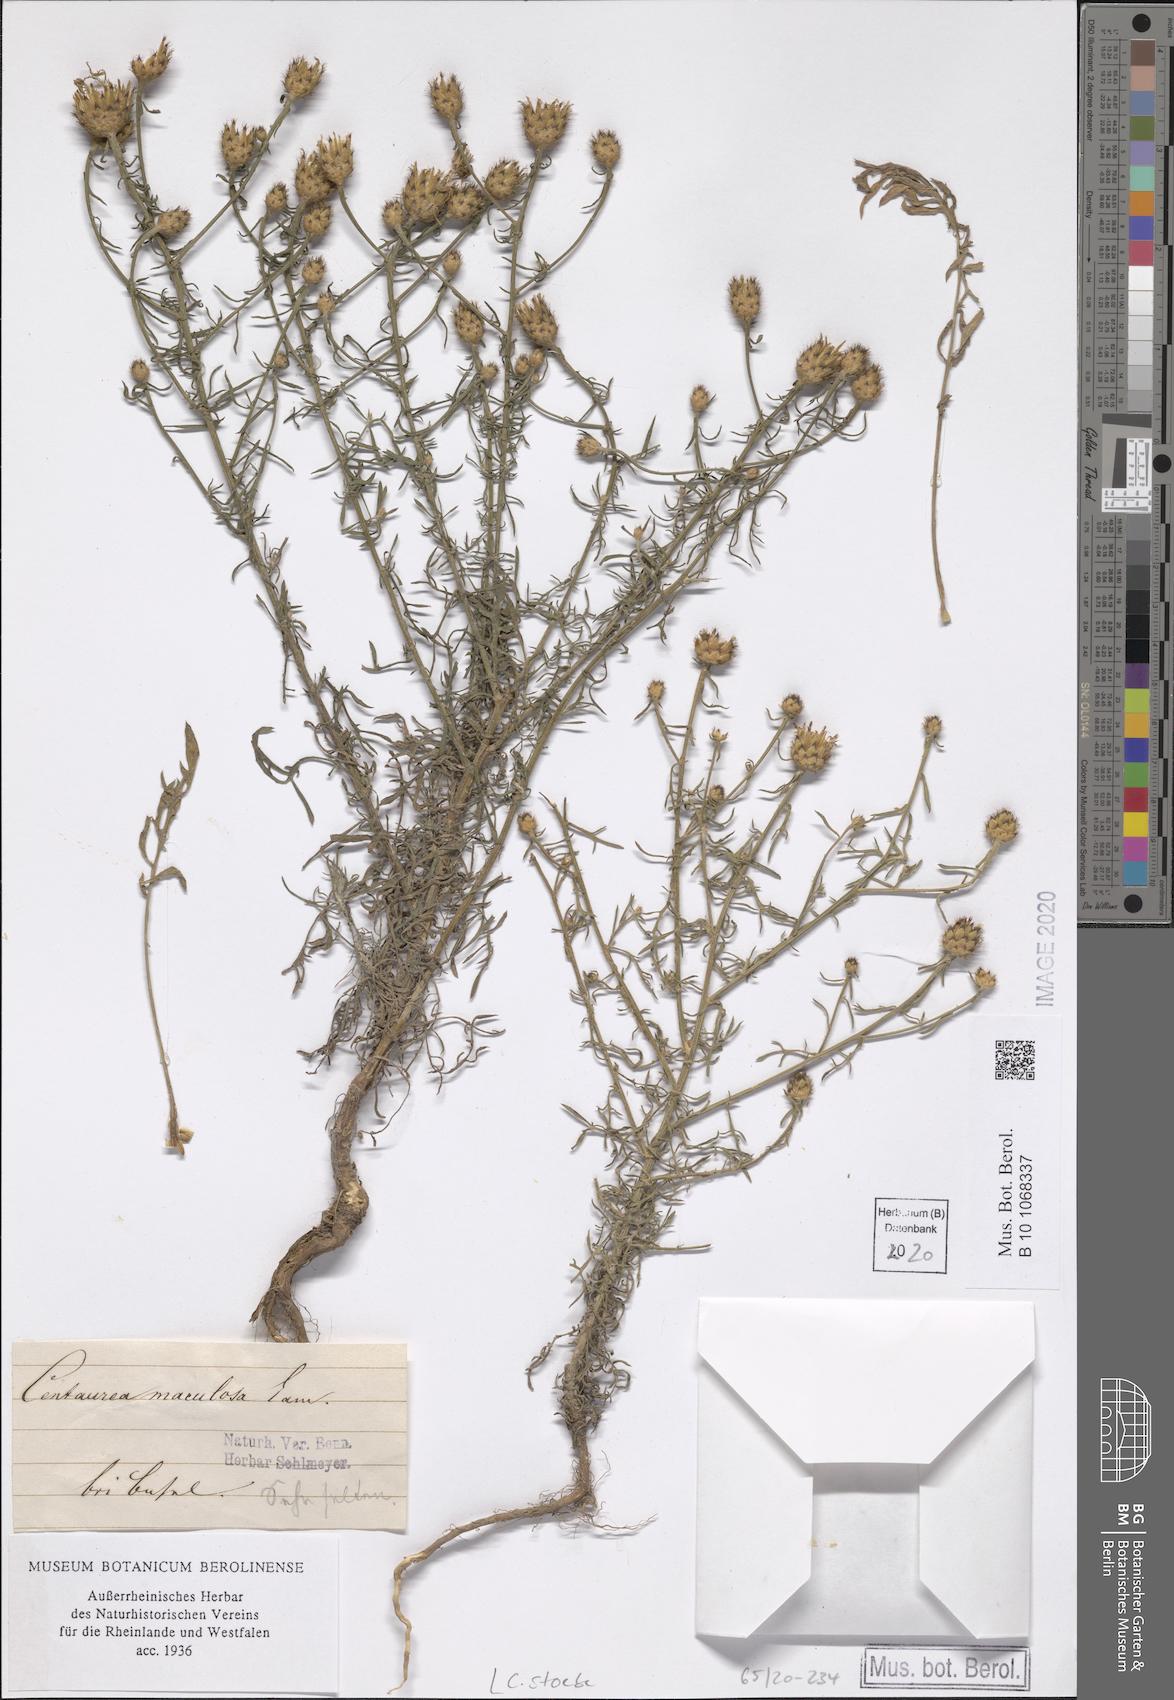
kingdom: Plantae
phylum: Tracheophyta
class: Magnoliopsida
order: Asterales
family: Asteraceae
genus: Centaurea
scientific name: Centaurea stoebe
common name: Spotted knapweed
